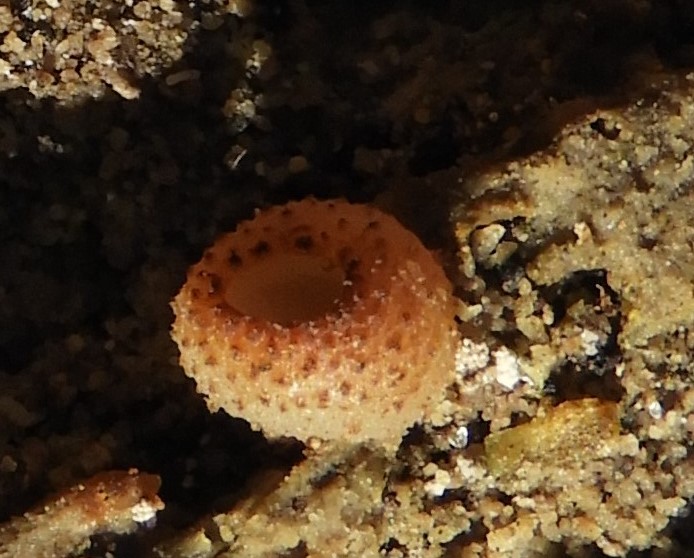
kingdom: Fungi
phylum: Ascomycota
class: Pezizomycetes
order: Pezizales
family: Pezizaceae
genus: Peziza
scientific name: Peziza varia
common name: Ved-bægersvamp
